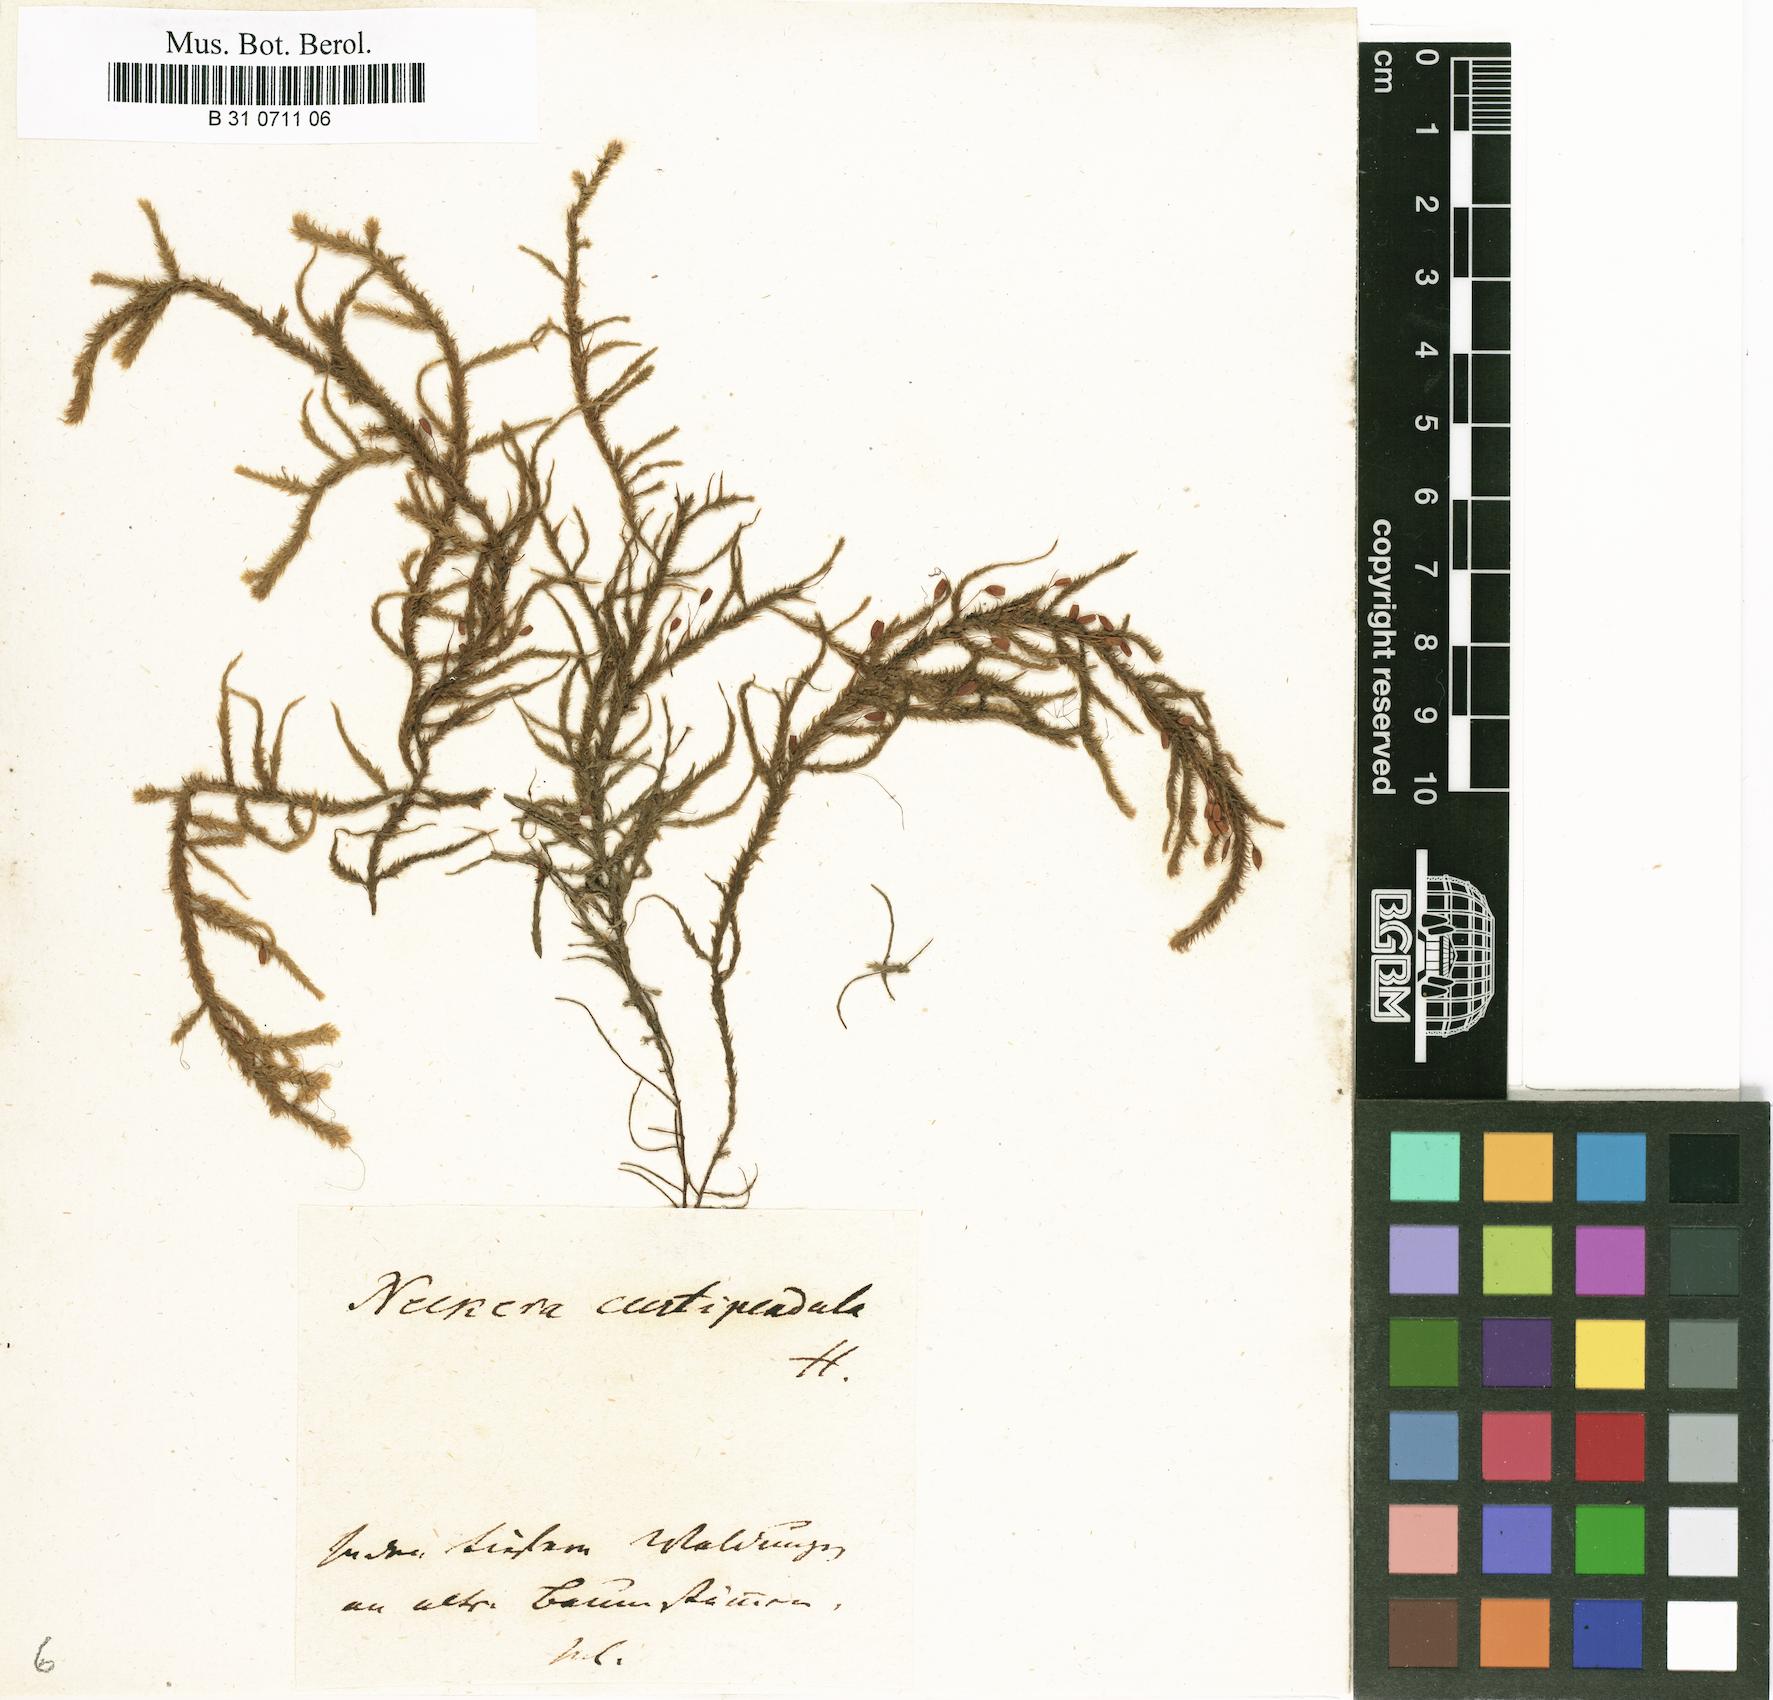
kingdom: Plantae
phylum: Bryophyta
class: Bryopsida
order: Hypnales
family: Antitrichiaceae
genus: Antitrichia
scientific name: Antitrichia curtipendula
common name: Pendulous wing-moss
